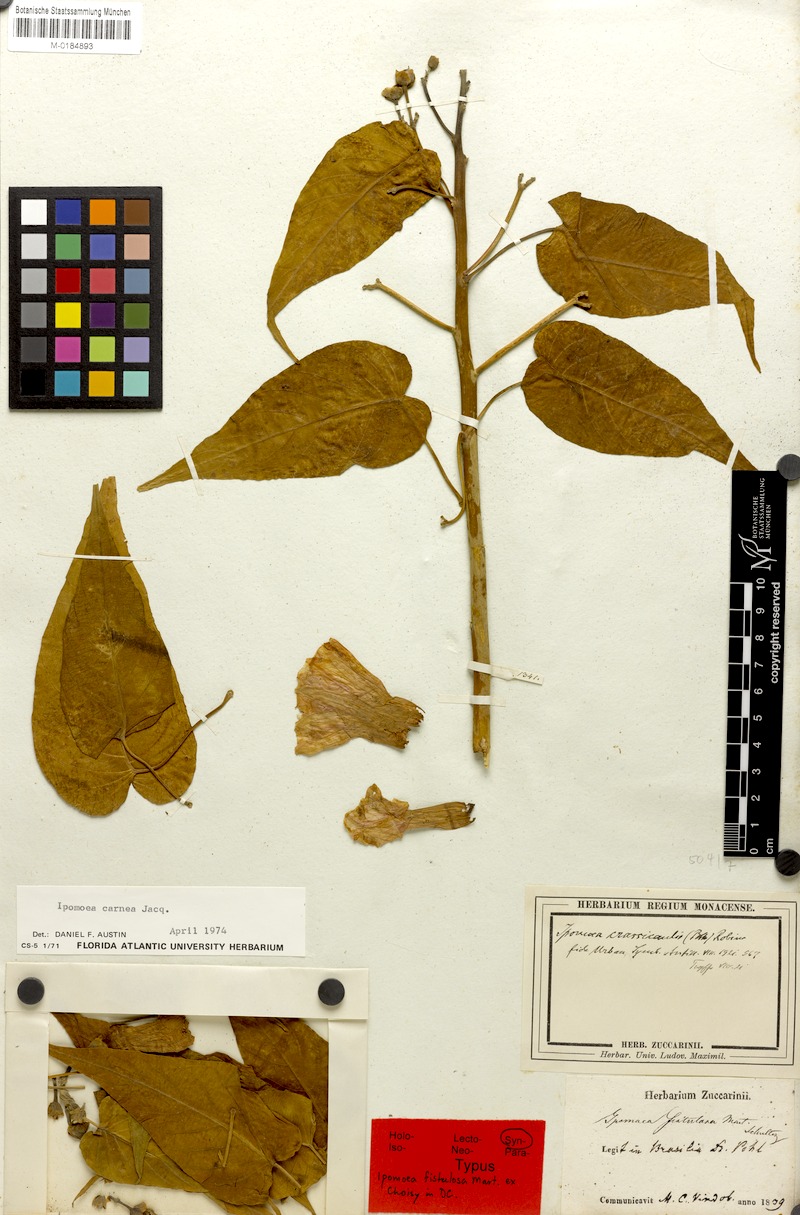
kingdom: Plantae
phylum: Tracheophyta
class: Magnoliopsida
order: Solanales
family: Convolvulaceae
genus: Ipomoea
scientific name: Ipomoea carnea
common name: Morning-glory
